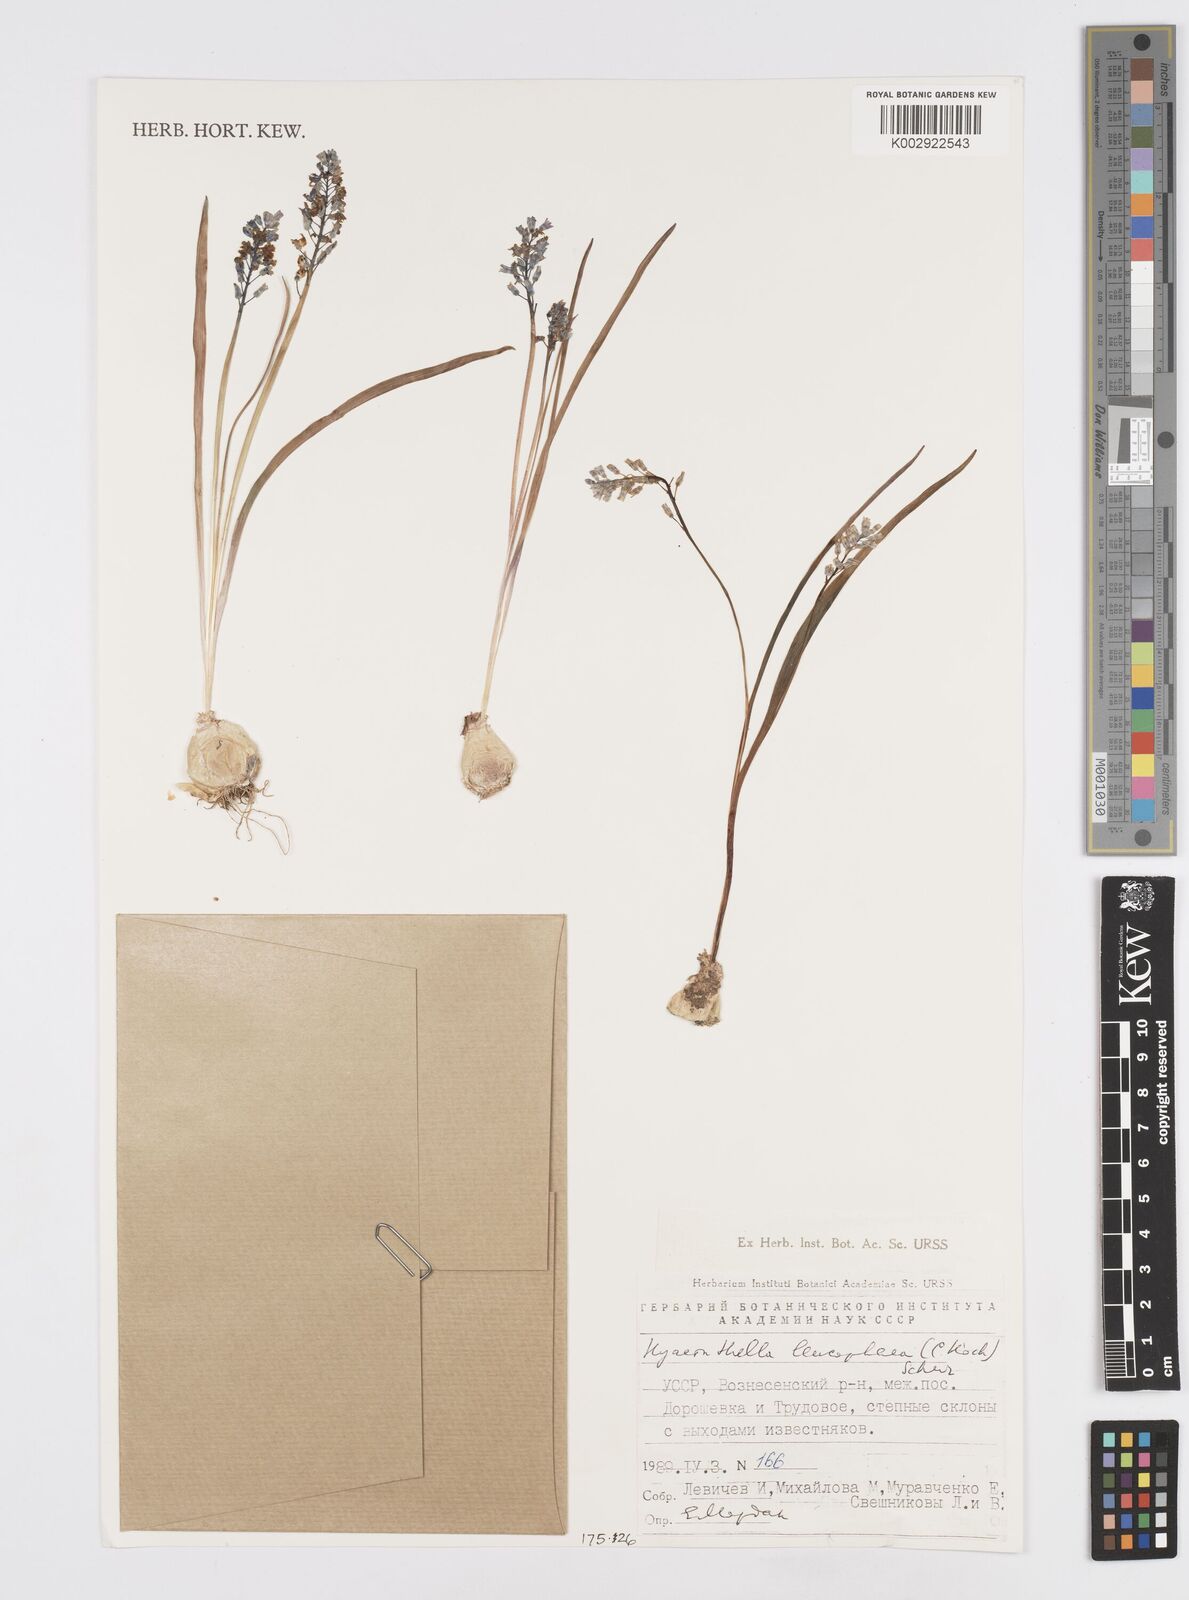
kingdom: Plantae
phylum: Tracheophyta
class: Liliopsida
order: Asparagales
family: Asparagaceae
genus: Hyacinthella
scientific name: Hyacinthella leucophaea
